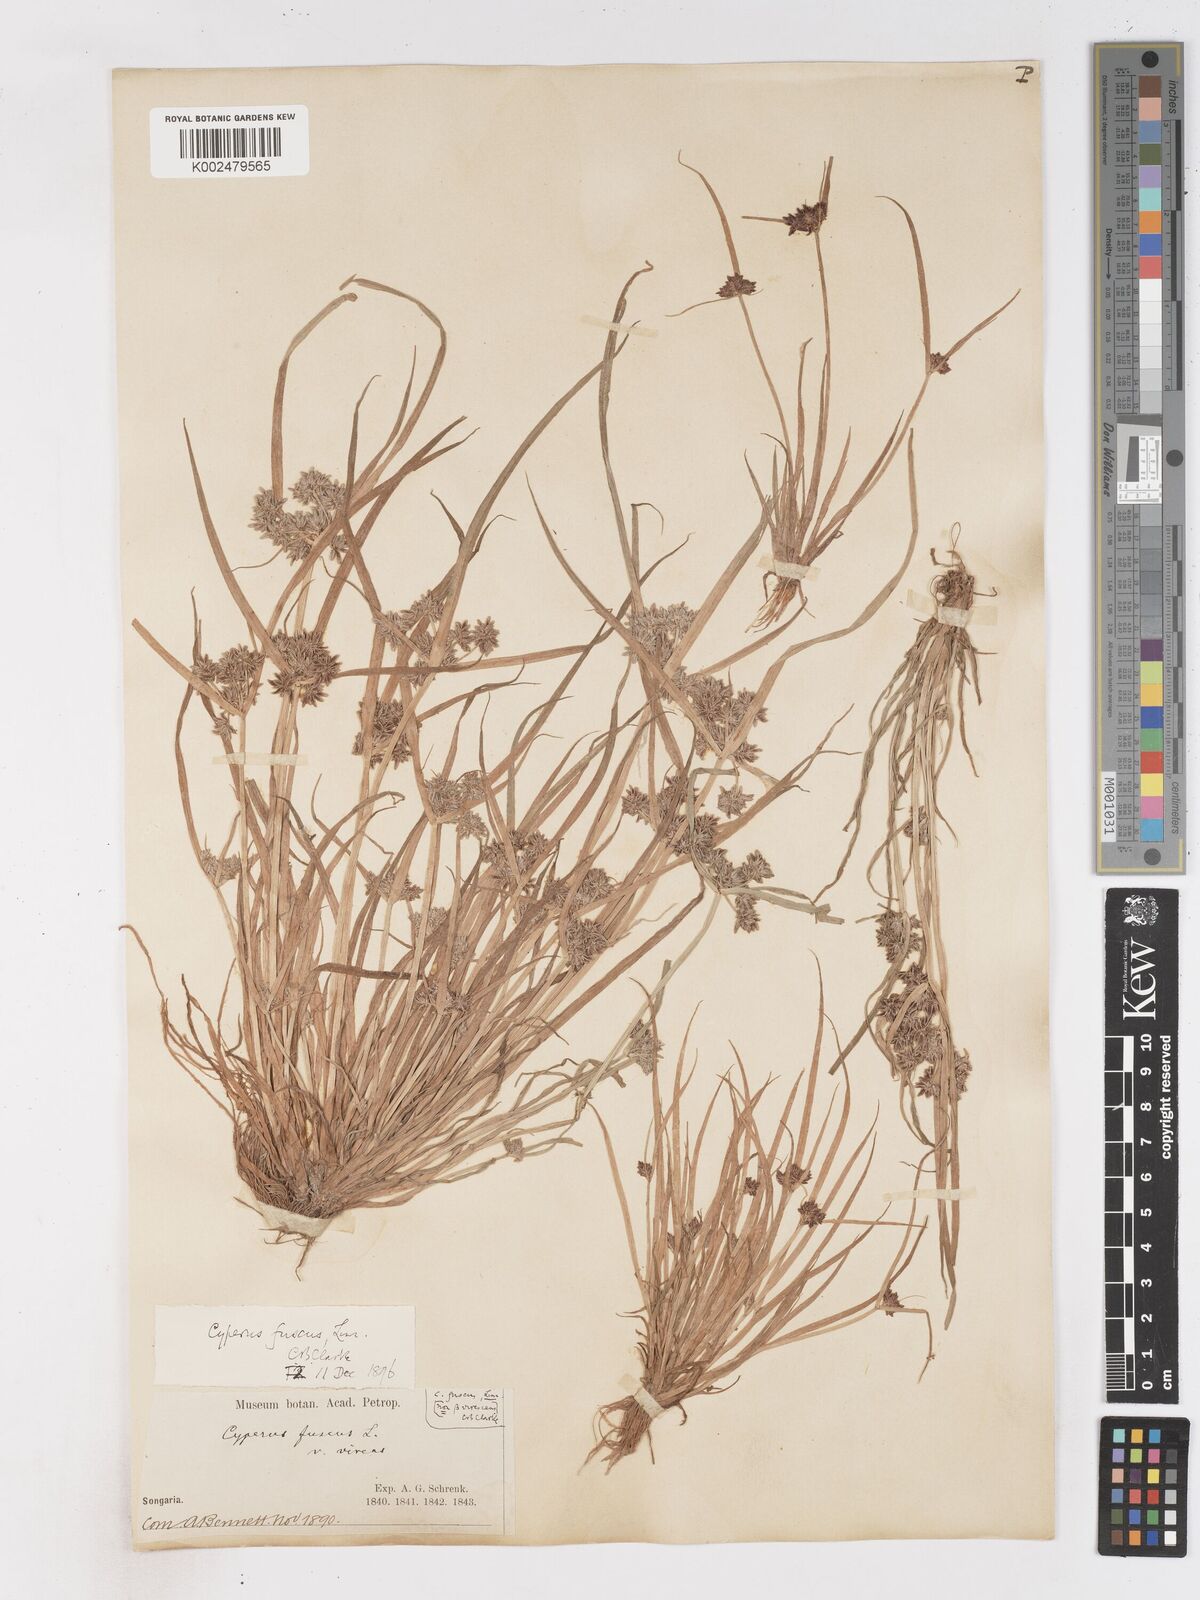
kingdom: Plantae
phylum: Tracheophyta
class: Liliopsida
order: Poales
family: Cyperaceae
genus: Cyperus
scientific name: Cyperus fuscus
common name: Brown galingale
